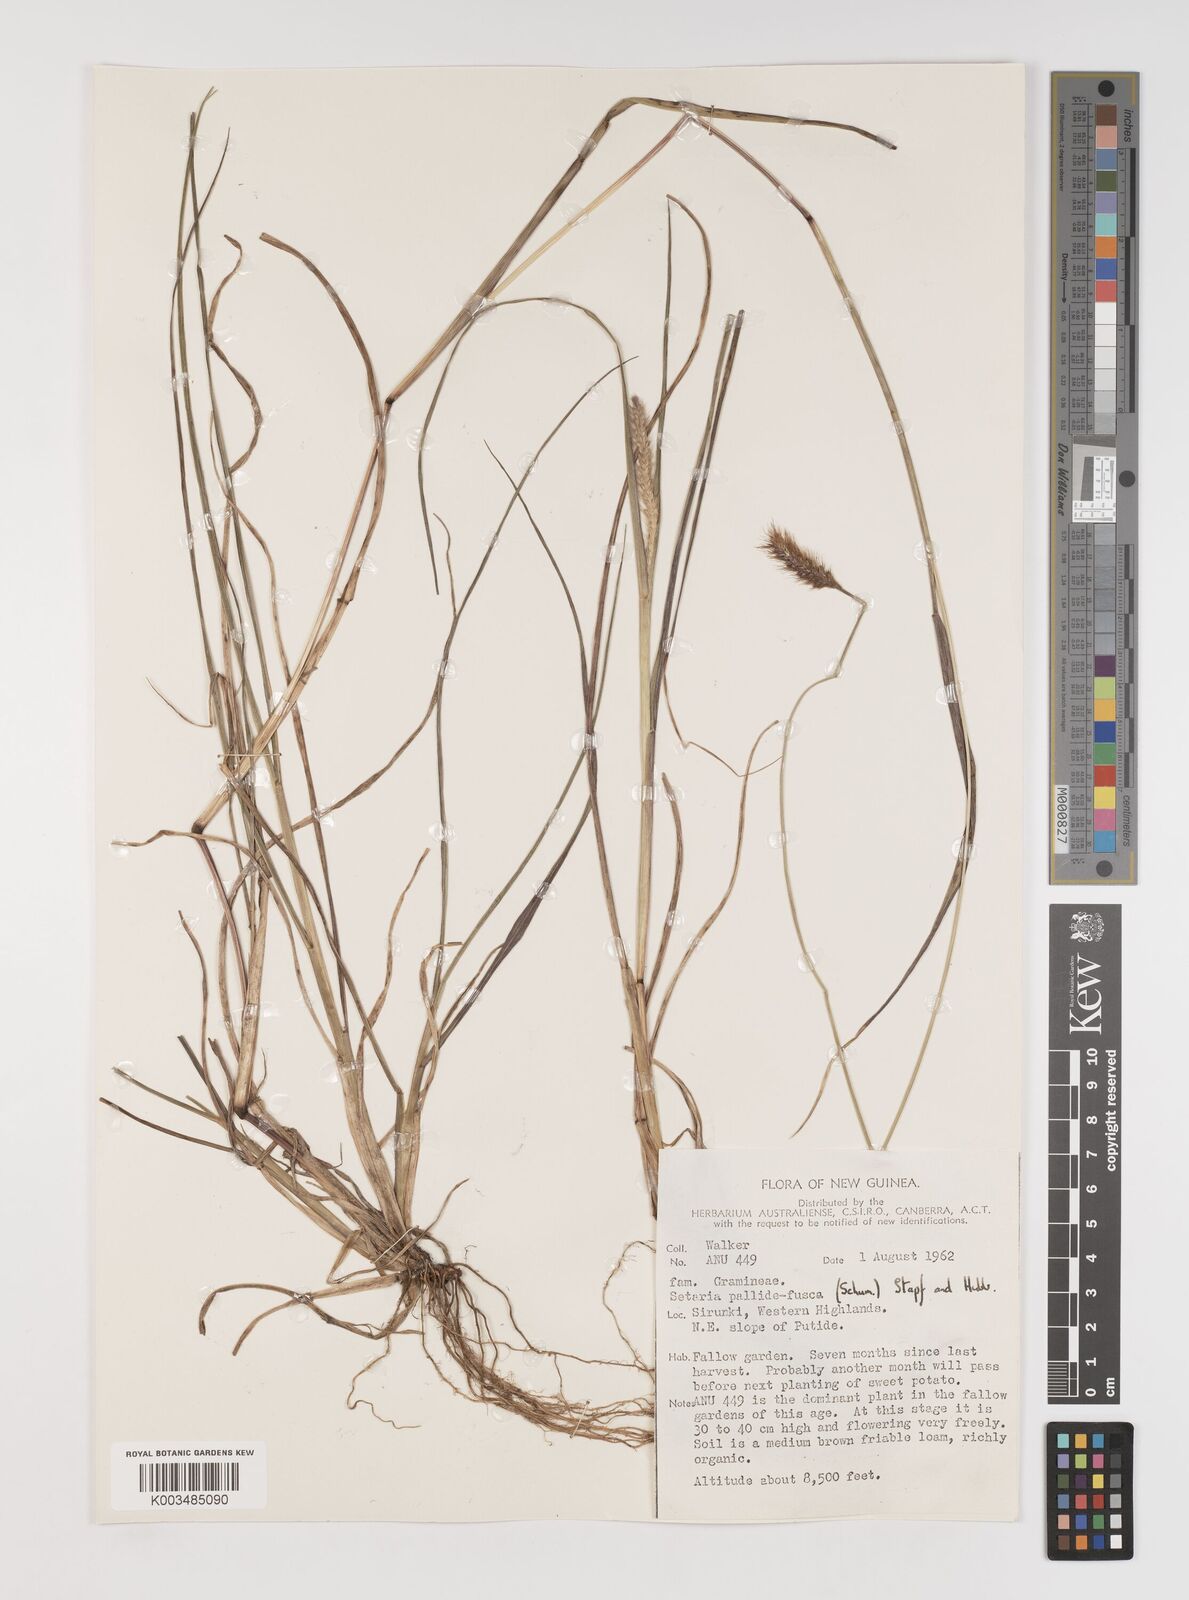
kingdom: Plantae
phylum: Tracheophyta
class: Liliopsida
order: Poales
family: Poaceae
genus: Setaria
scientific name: Setaria parviflora
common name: Knotroot bristle-grass
